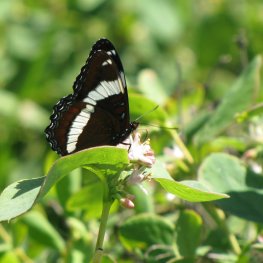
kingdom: Animalia
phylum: Arthropoda
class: Insecta
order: Lepidoptera
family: Nymphalidae
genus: Limenitis
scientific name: Limenitis arthemis
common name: Red-spotted Admiral
